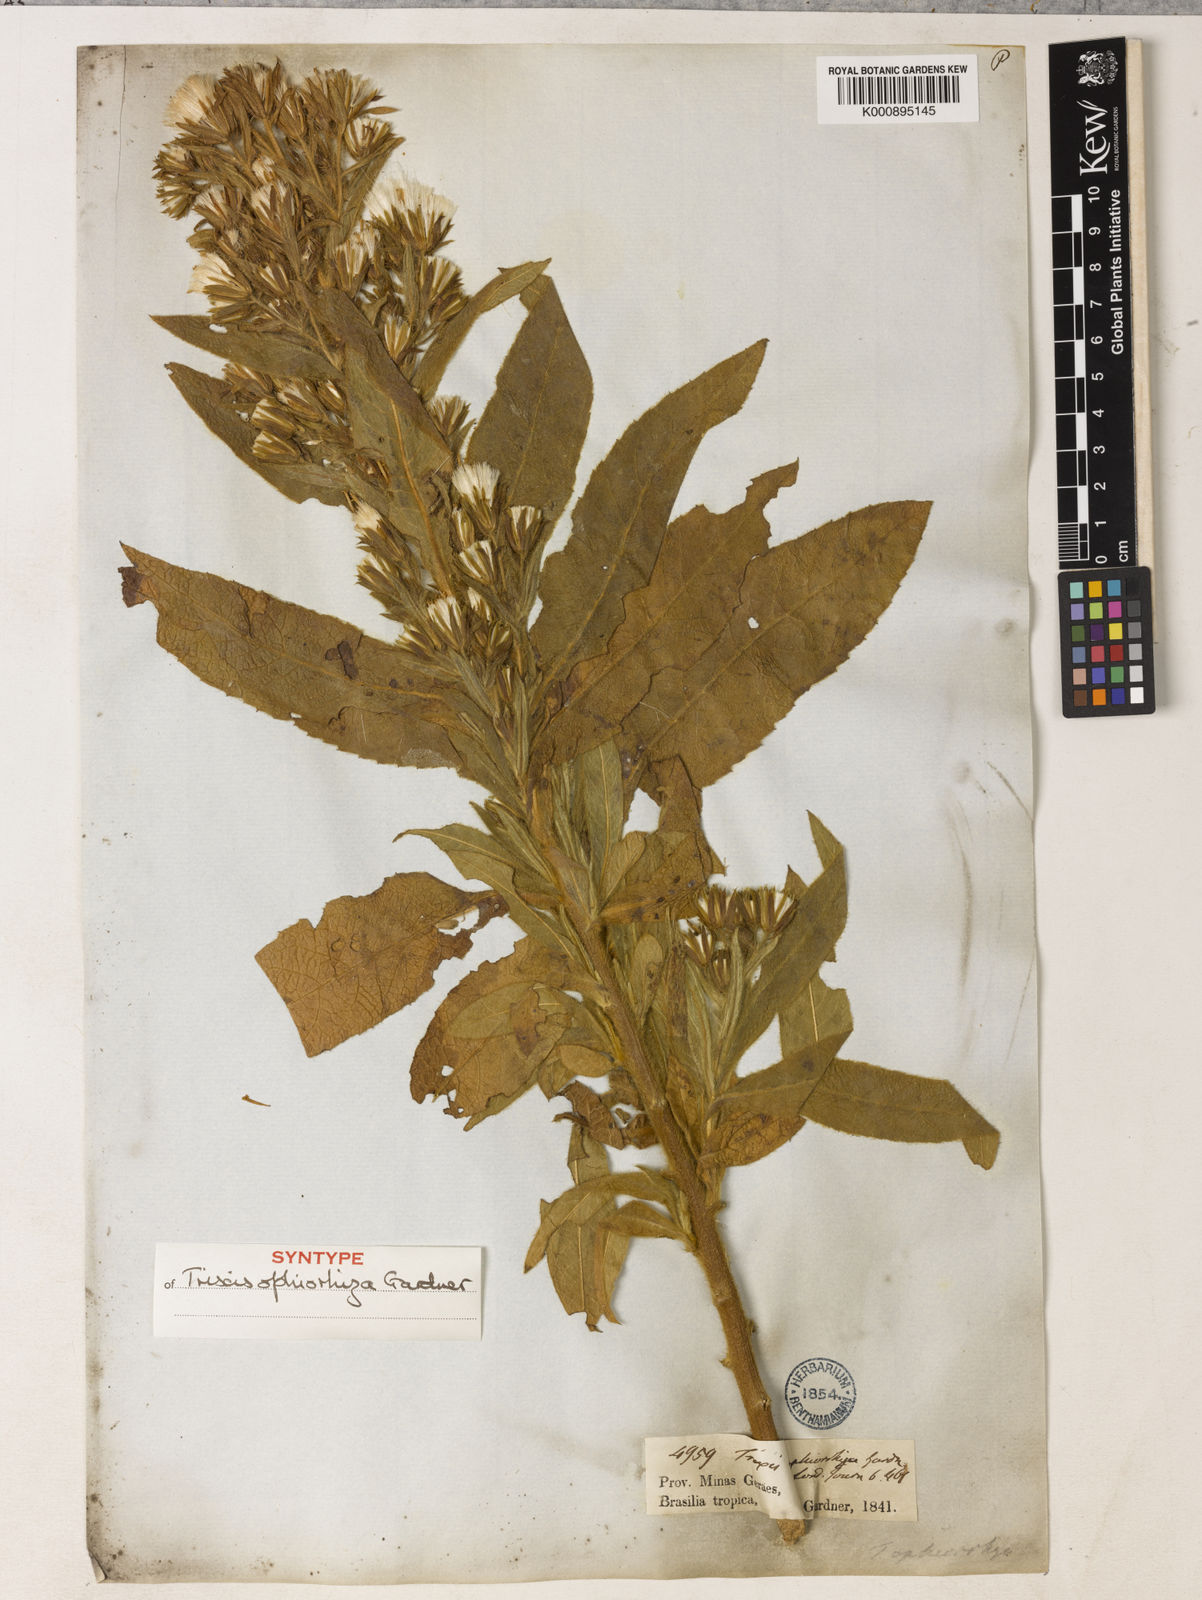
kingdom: Plantae
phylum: Tracheophyta
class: Magnoliopsida
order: Asterales
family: Asteraceae
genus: Trixis
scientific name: Trixis ophiorhiza
